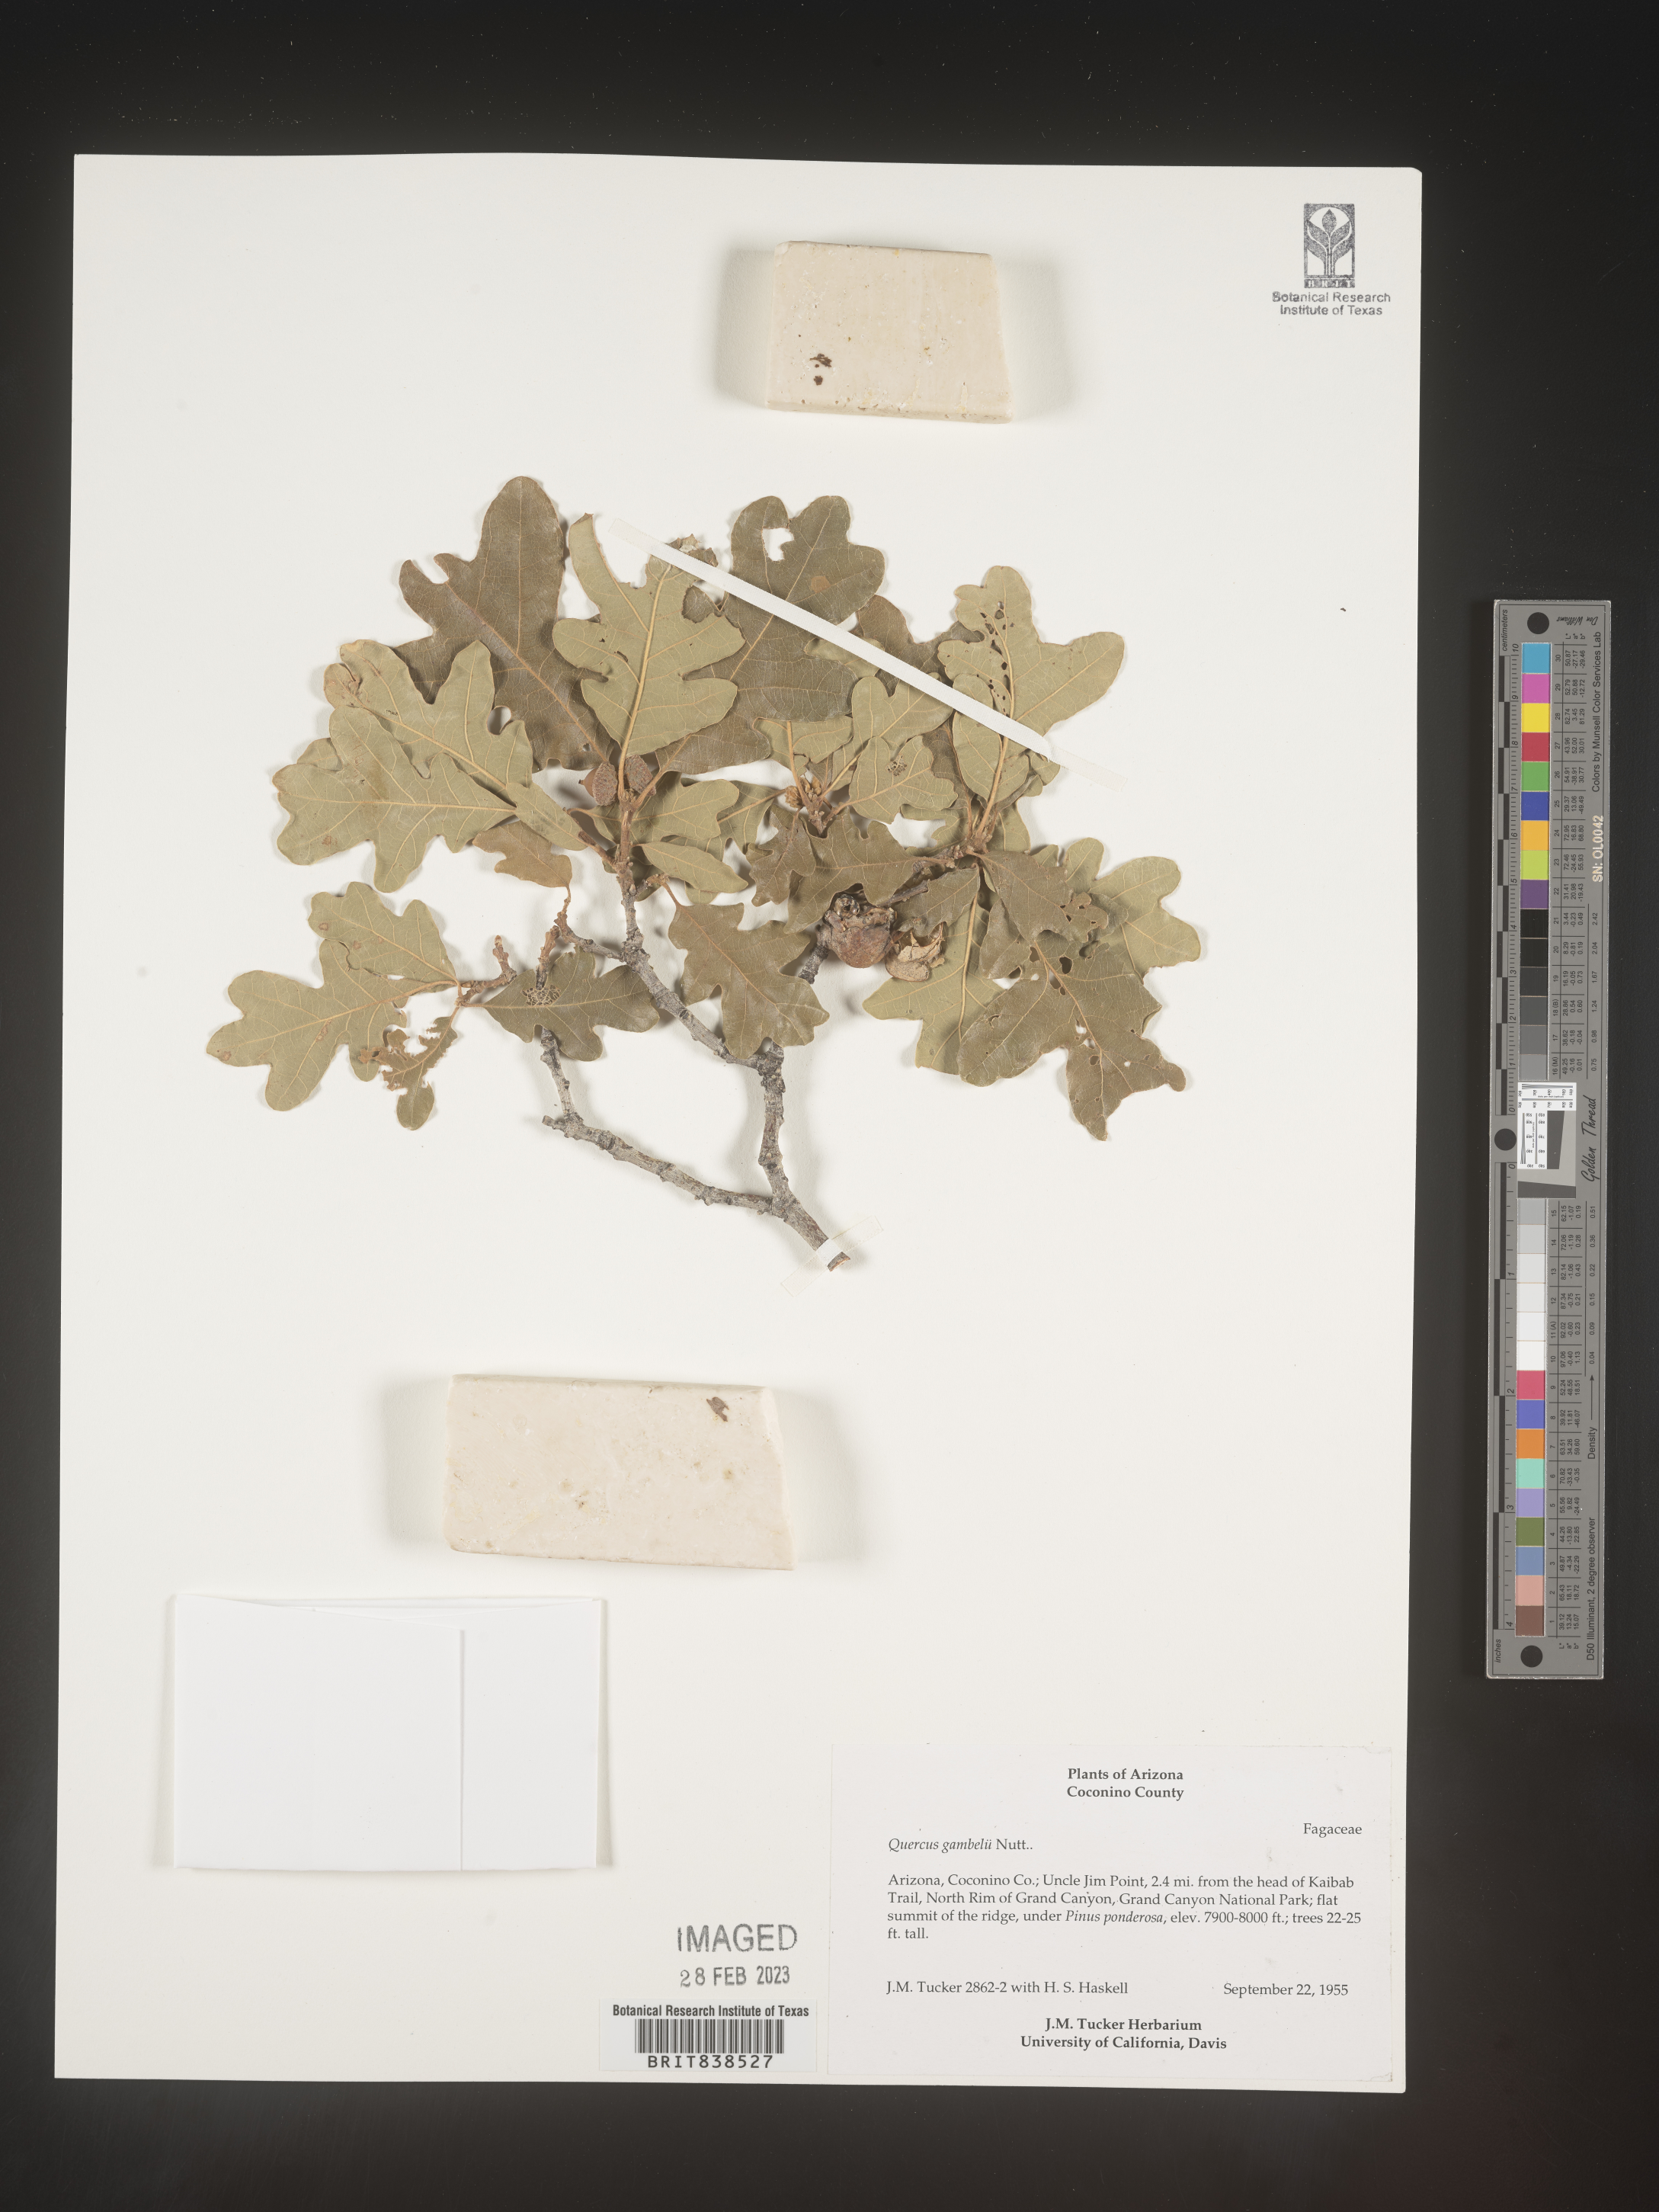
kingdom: Plantae
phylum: Tracheophyta
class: Magnoliopsida
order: Fagales
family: Fagaceae
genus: Quercus
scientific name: Quercus gambelii
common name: Gambel oak
